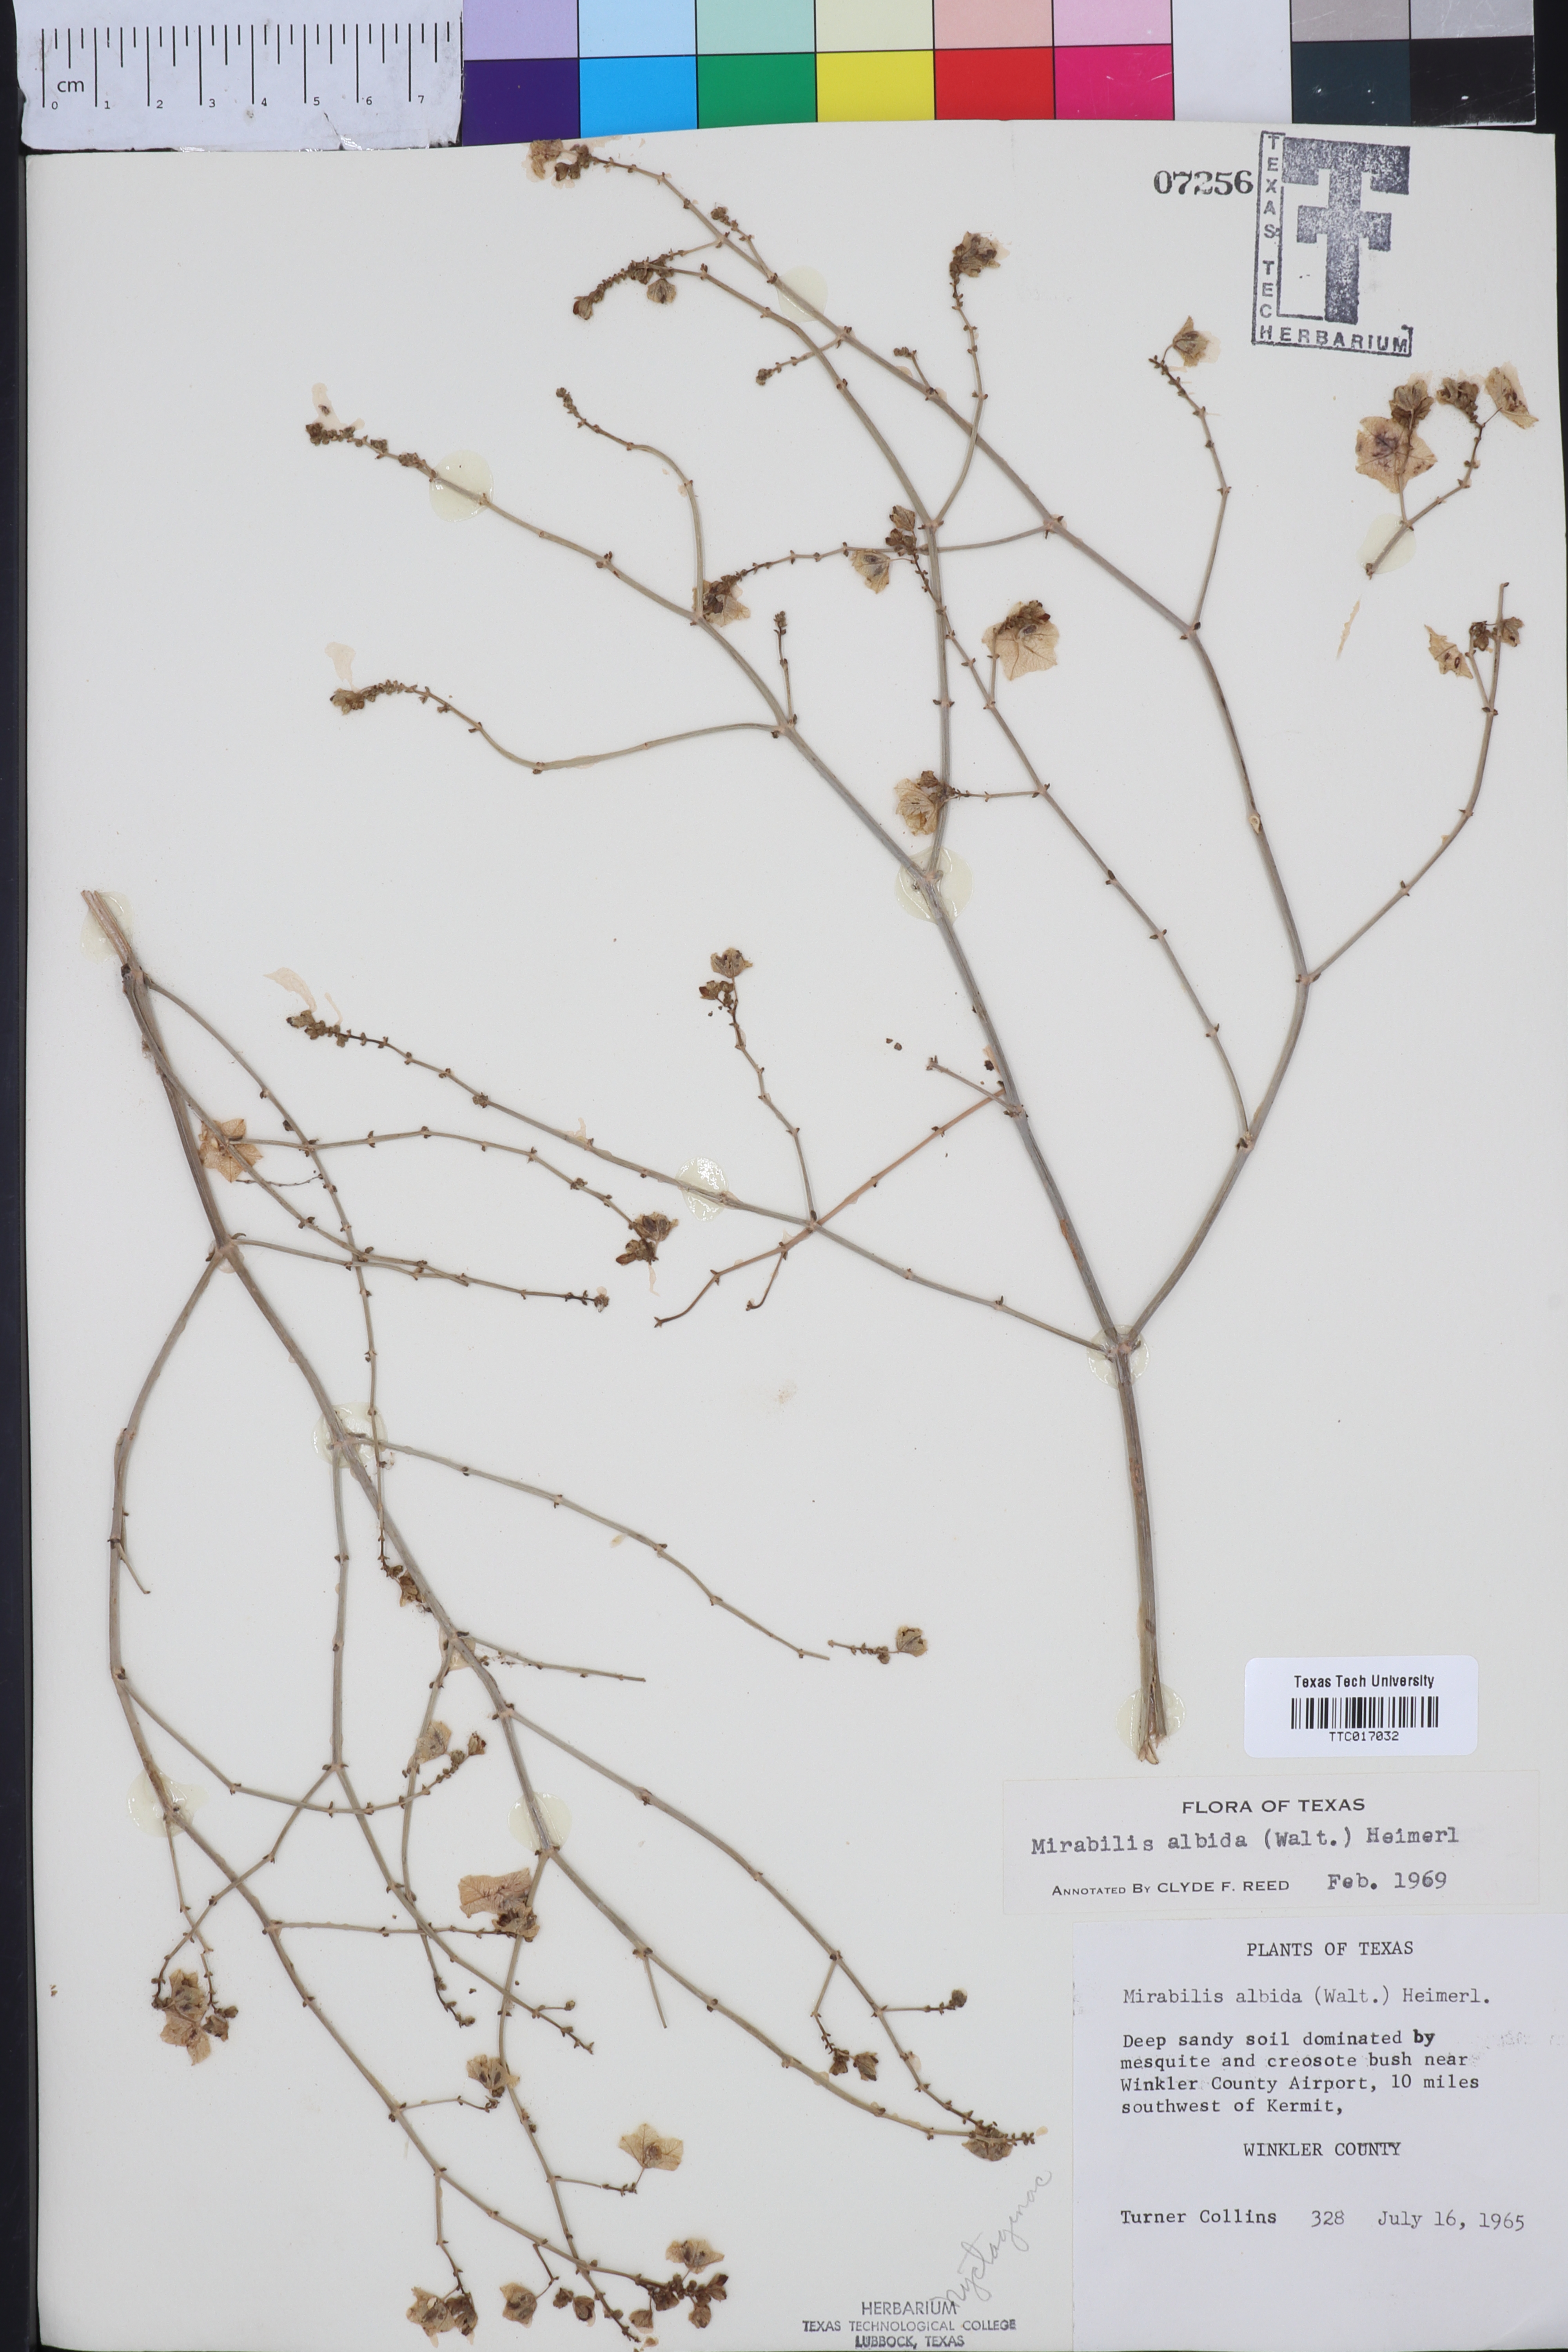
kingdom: Plantae
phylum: Tracheophyta
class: Magnoliopsida
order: Caryophyllales
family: Nyctaginaceae
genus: Mirabilis
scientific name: Mirabilis albida
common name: Hairy four-o'clock
